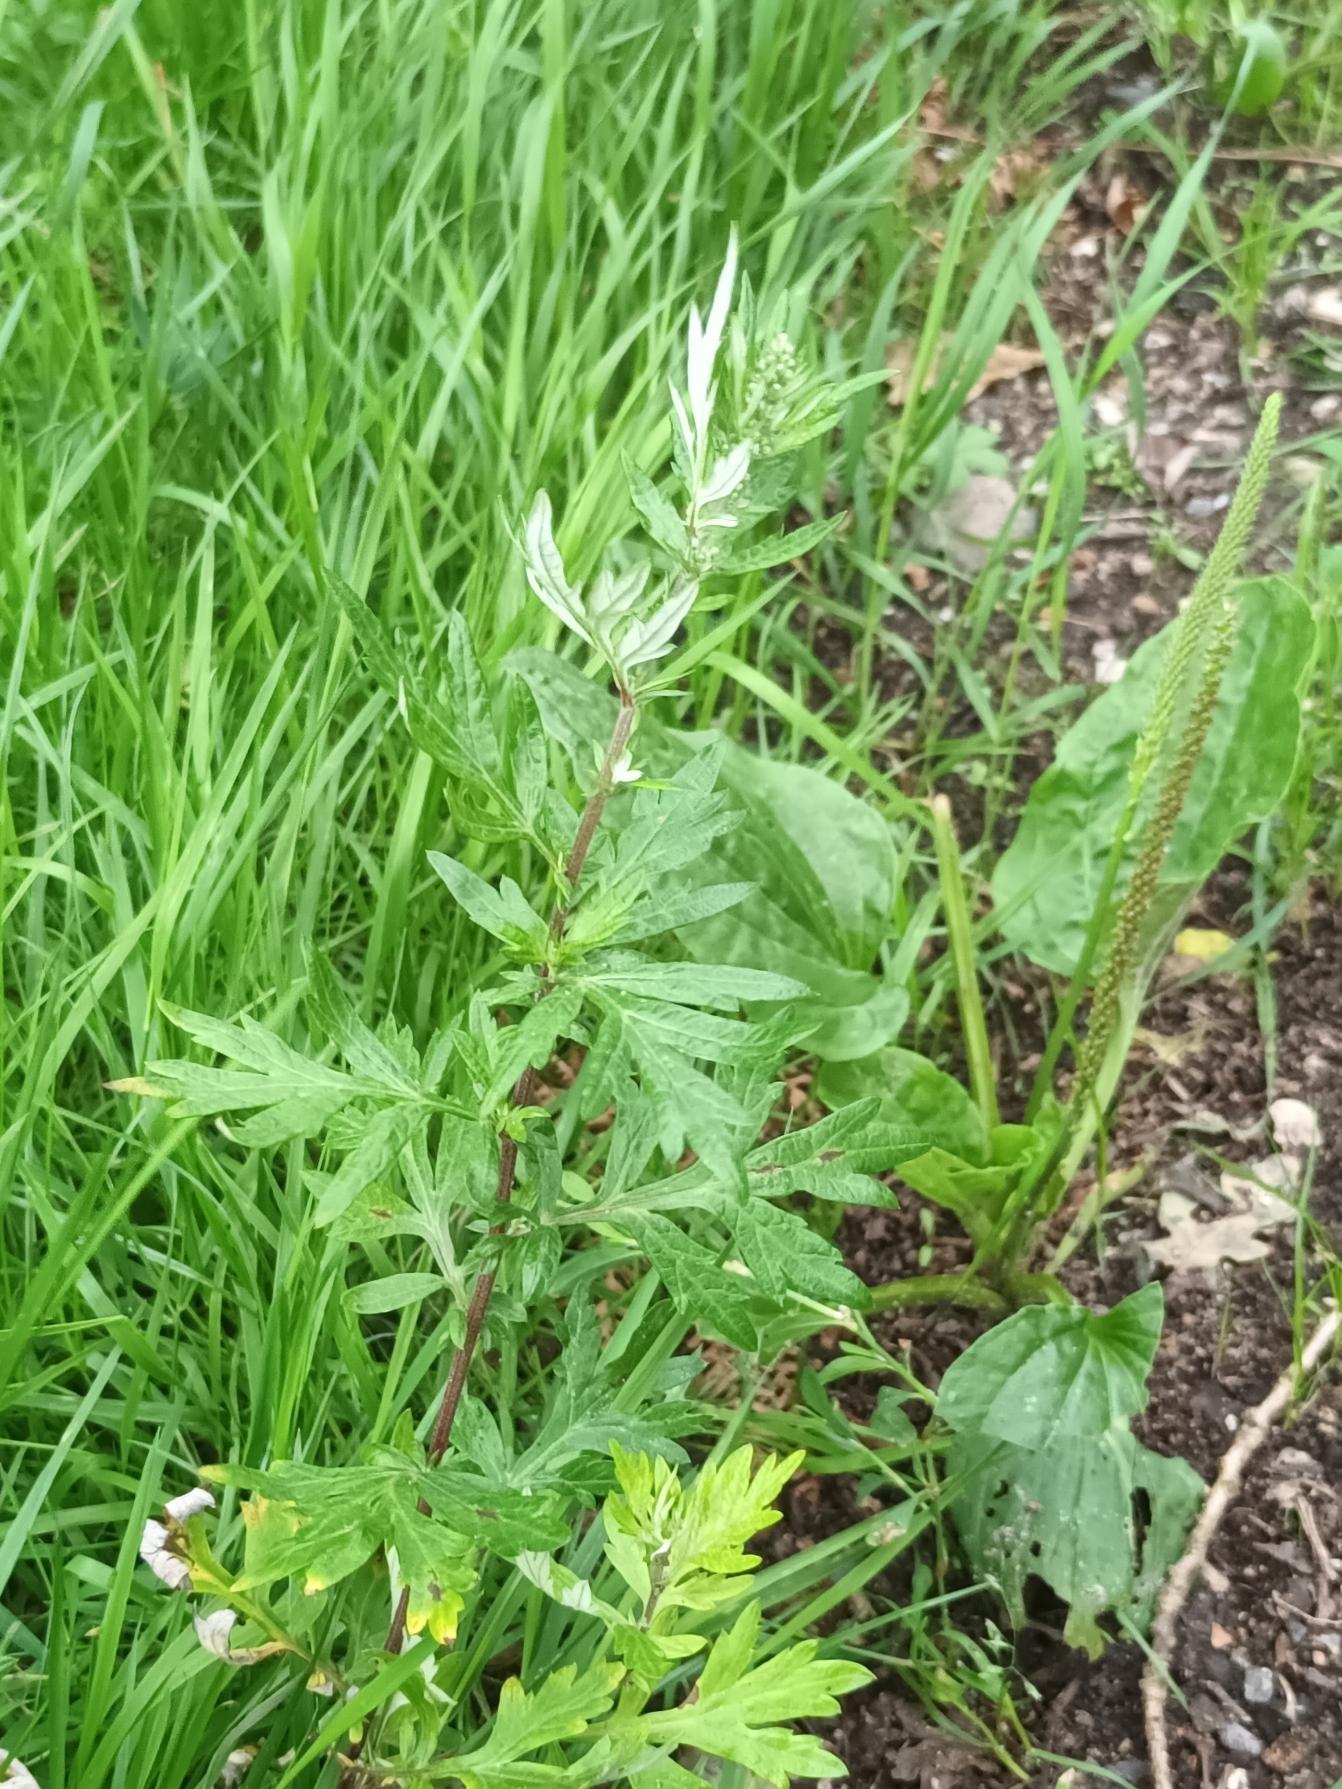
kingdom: Plantae
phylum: Tracheophyta
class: Magnoliopsida
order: Asterales
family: Asteraceae
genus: Artemisia
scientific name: Artemisia vulgaris
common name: Grå-bynke
